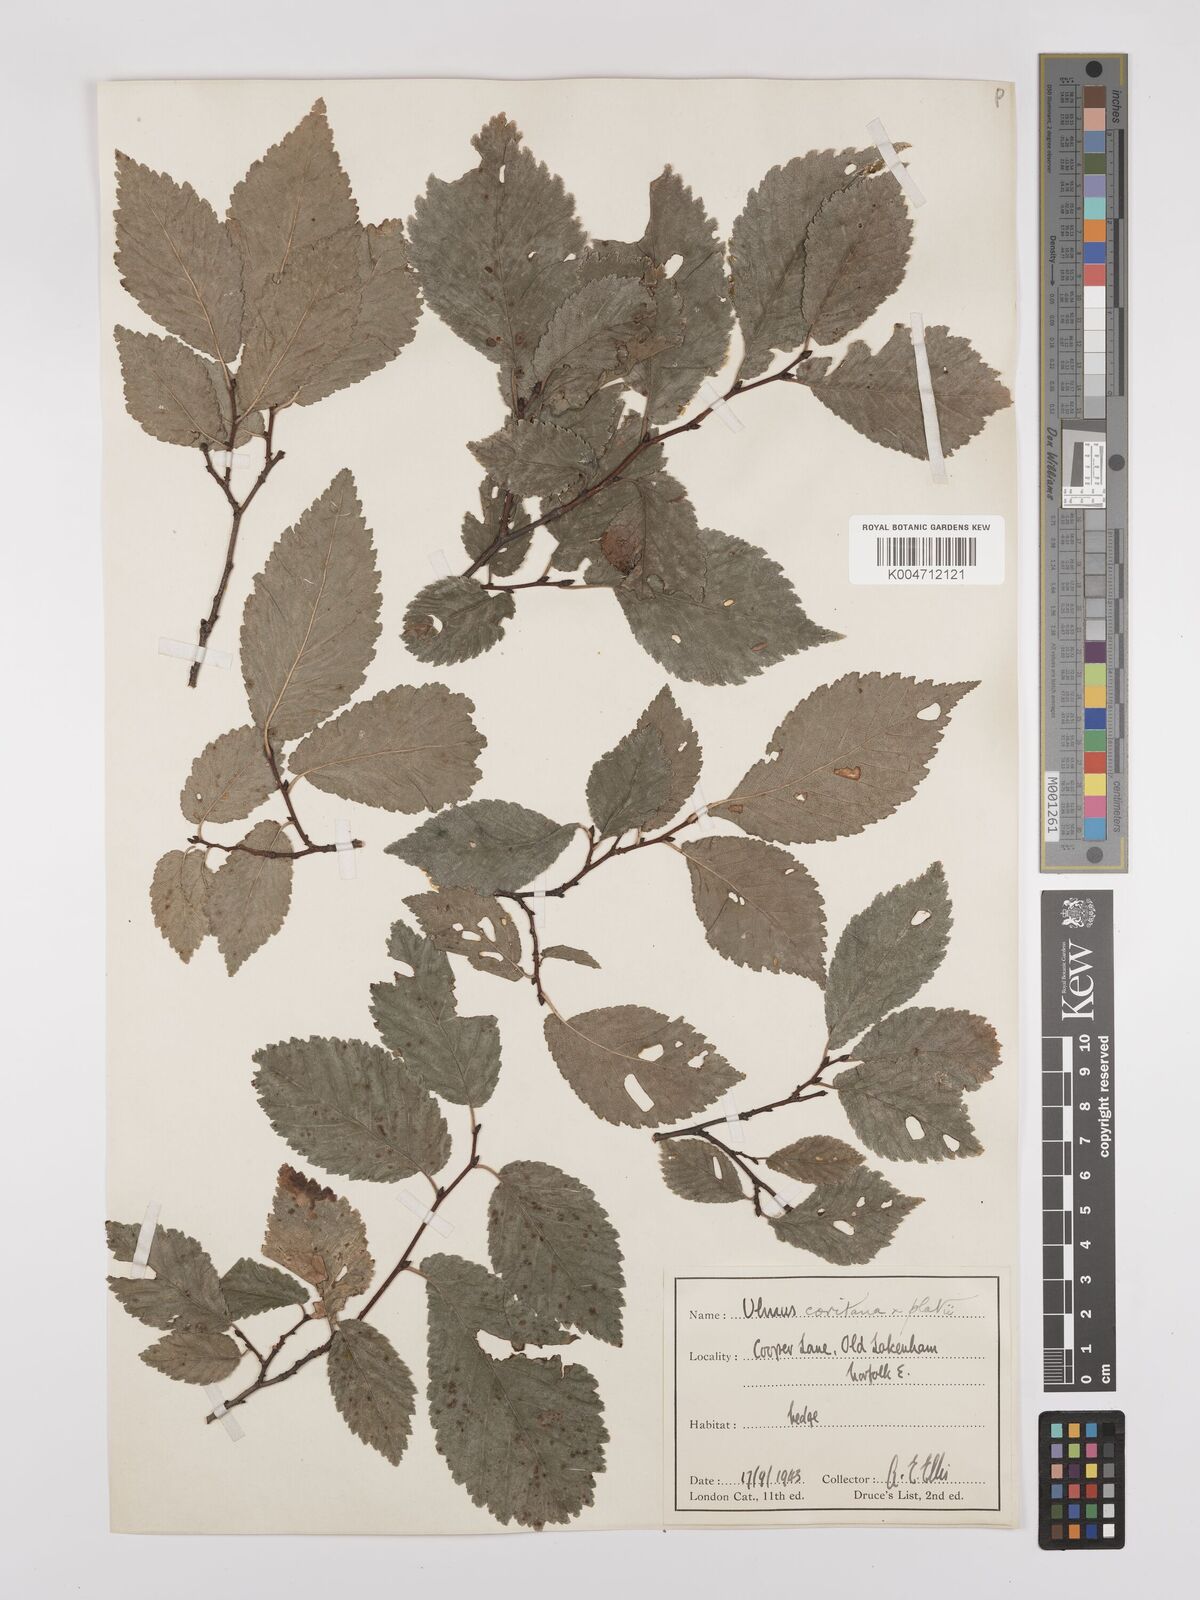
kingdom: Plantae
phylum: Tracheophyta
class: Magnoliopsida
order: Rosales
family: Ulmaceae
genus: Ulmus
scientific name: Ulmus minor
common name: Small-leaved elm
